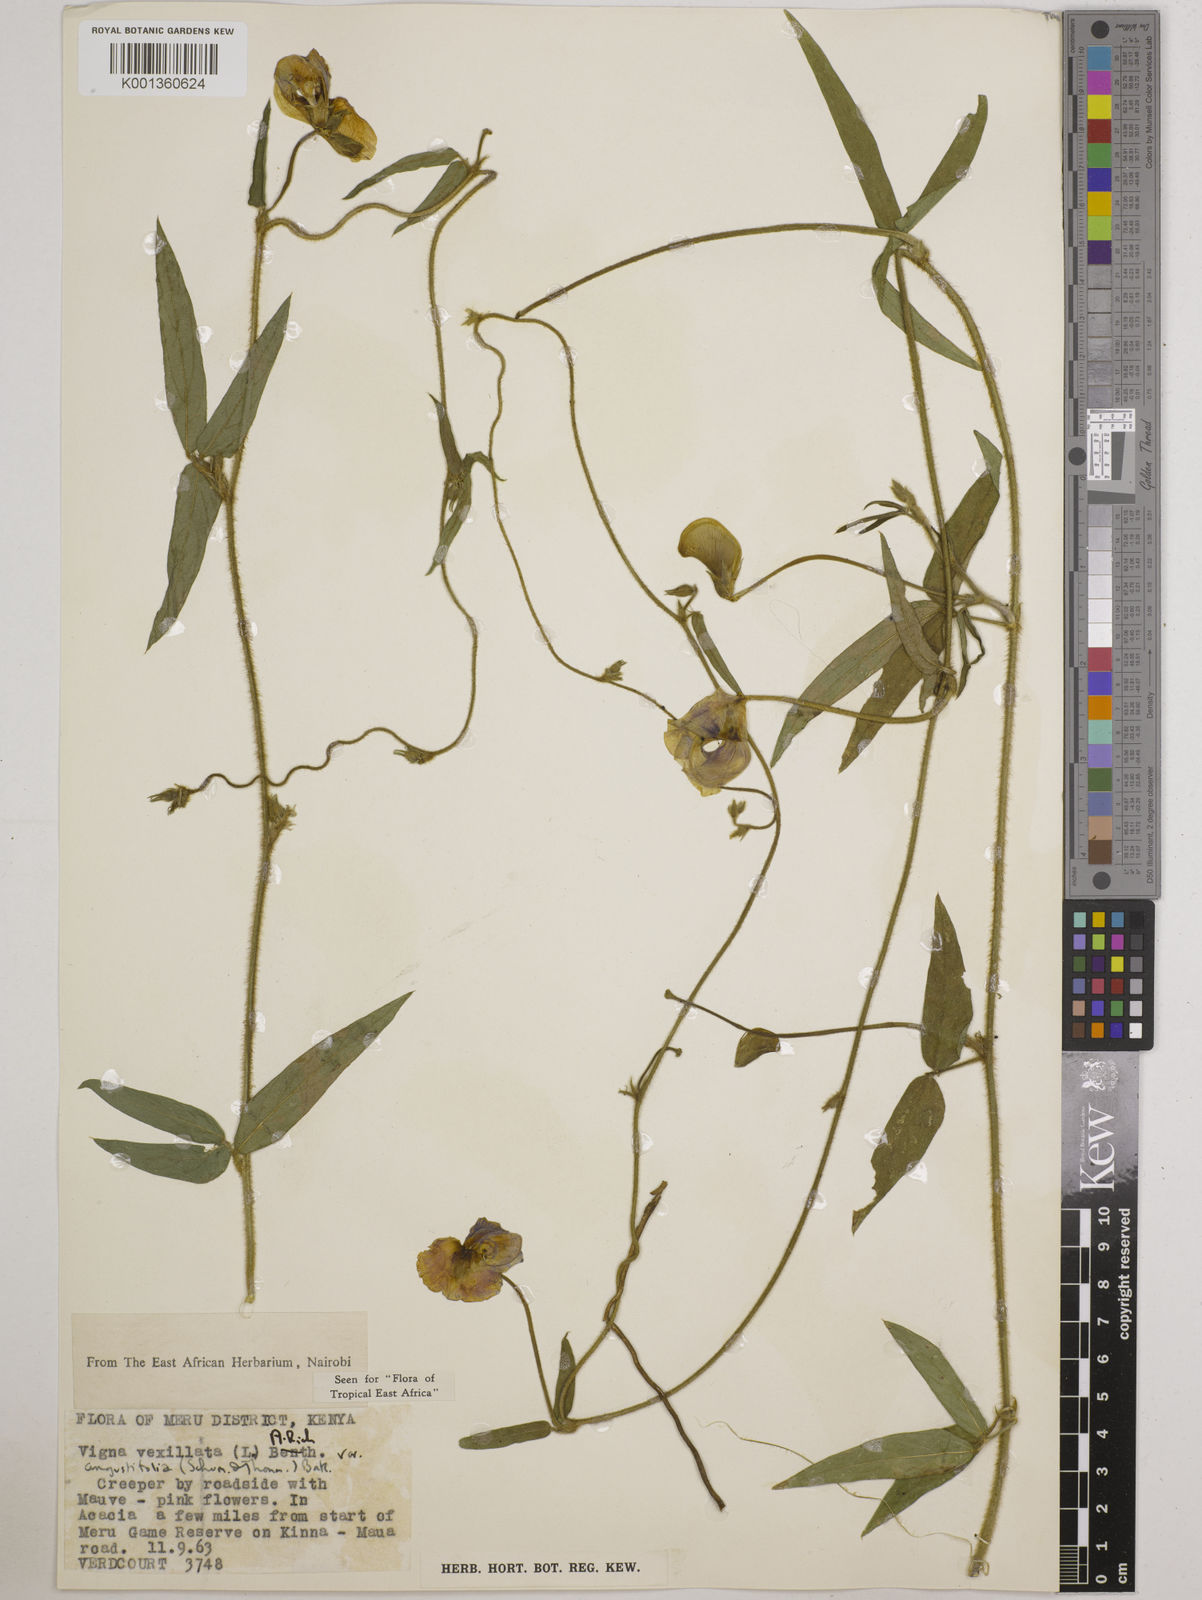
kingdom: Plantae
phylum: Tracheophyta
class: Magnoliopsida
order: Fabales
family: Fabaceae
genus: Vigna
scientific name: Vigna vexillata
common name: Zombi pea
